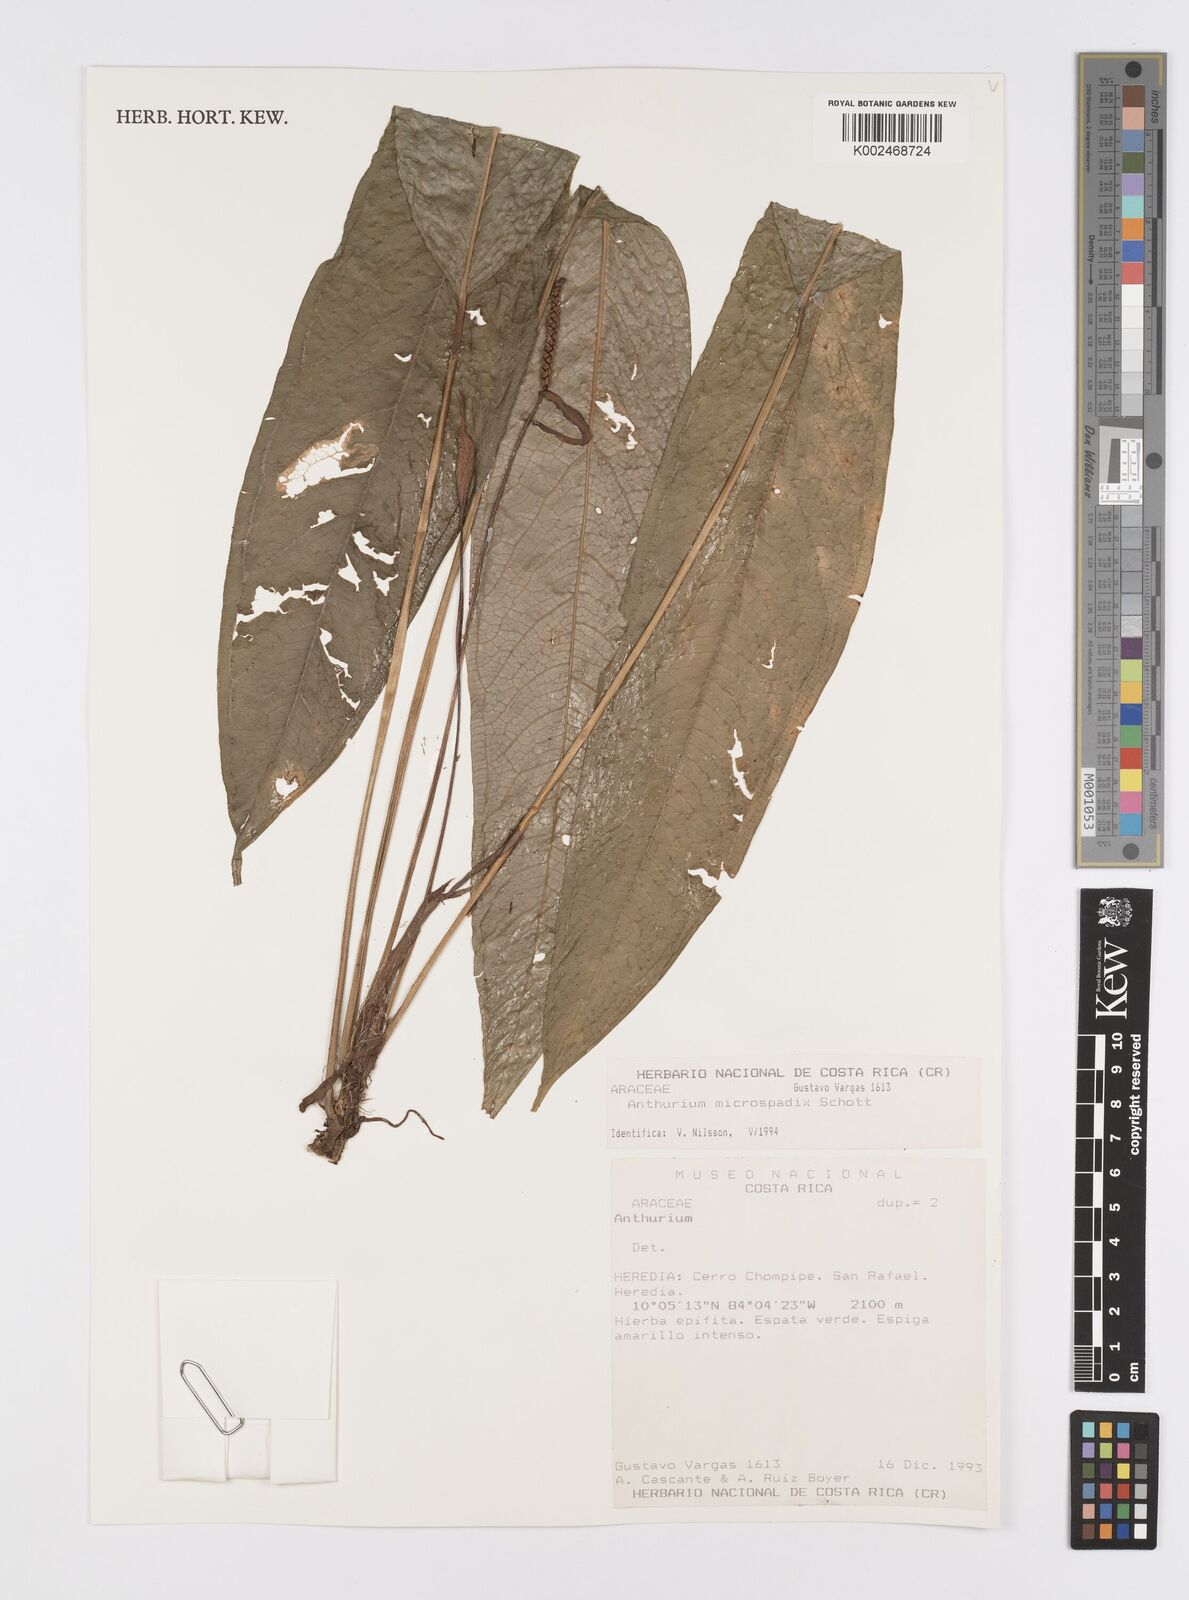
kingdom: Plantae
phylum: Tracheophyta
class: Liliopsida
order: Alismatales
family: Araceae
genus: Anthurium
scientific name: Anthurium microspadix
